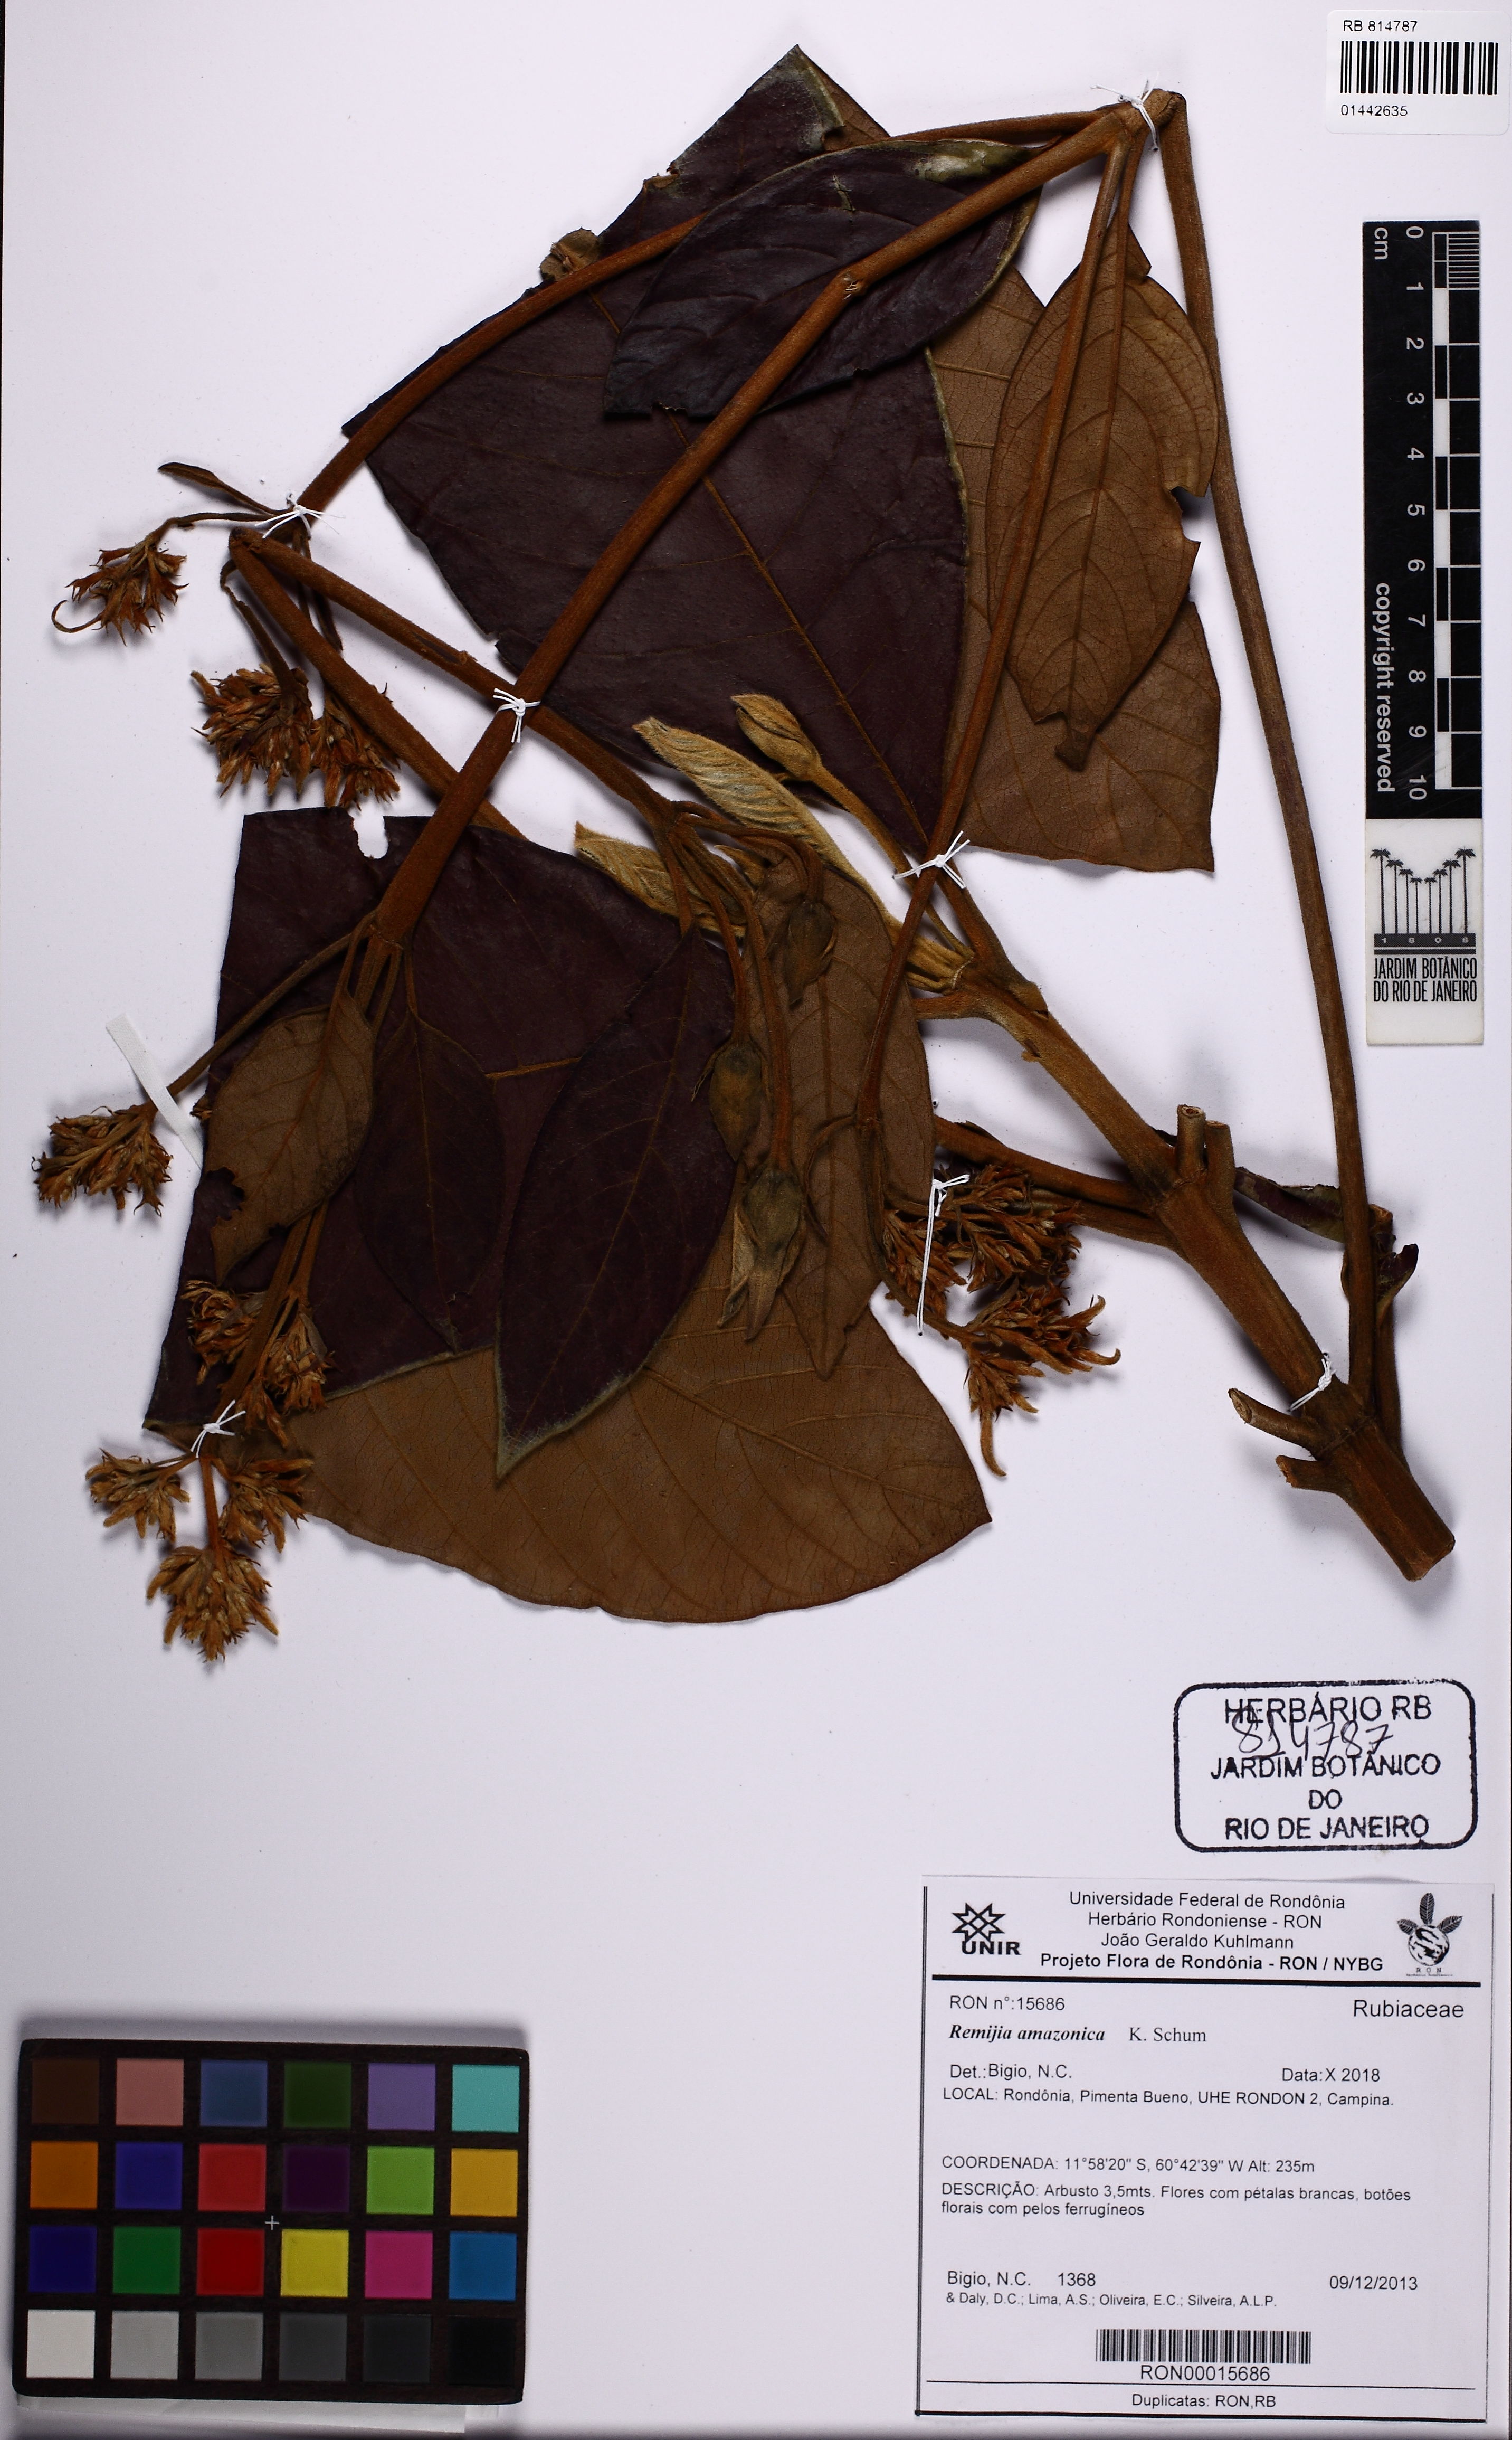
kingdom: Plantae
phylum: Tracheophyta
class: Magnoliopsida
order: Gentianales
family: Rubiaceae
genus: Remijia
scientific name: Remijia amazonica
